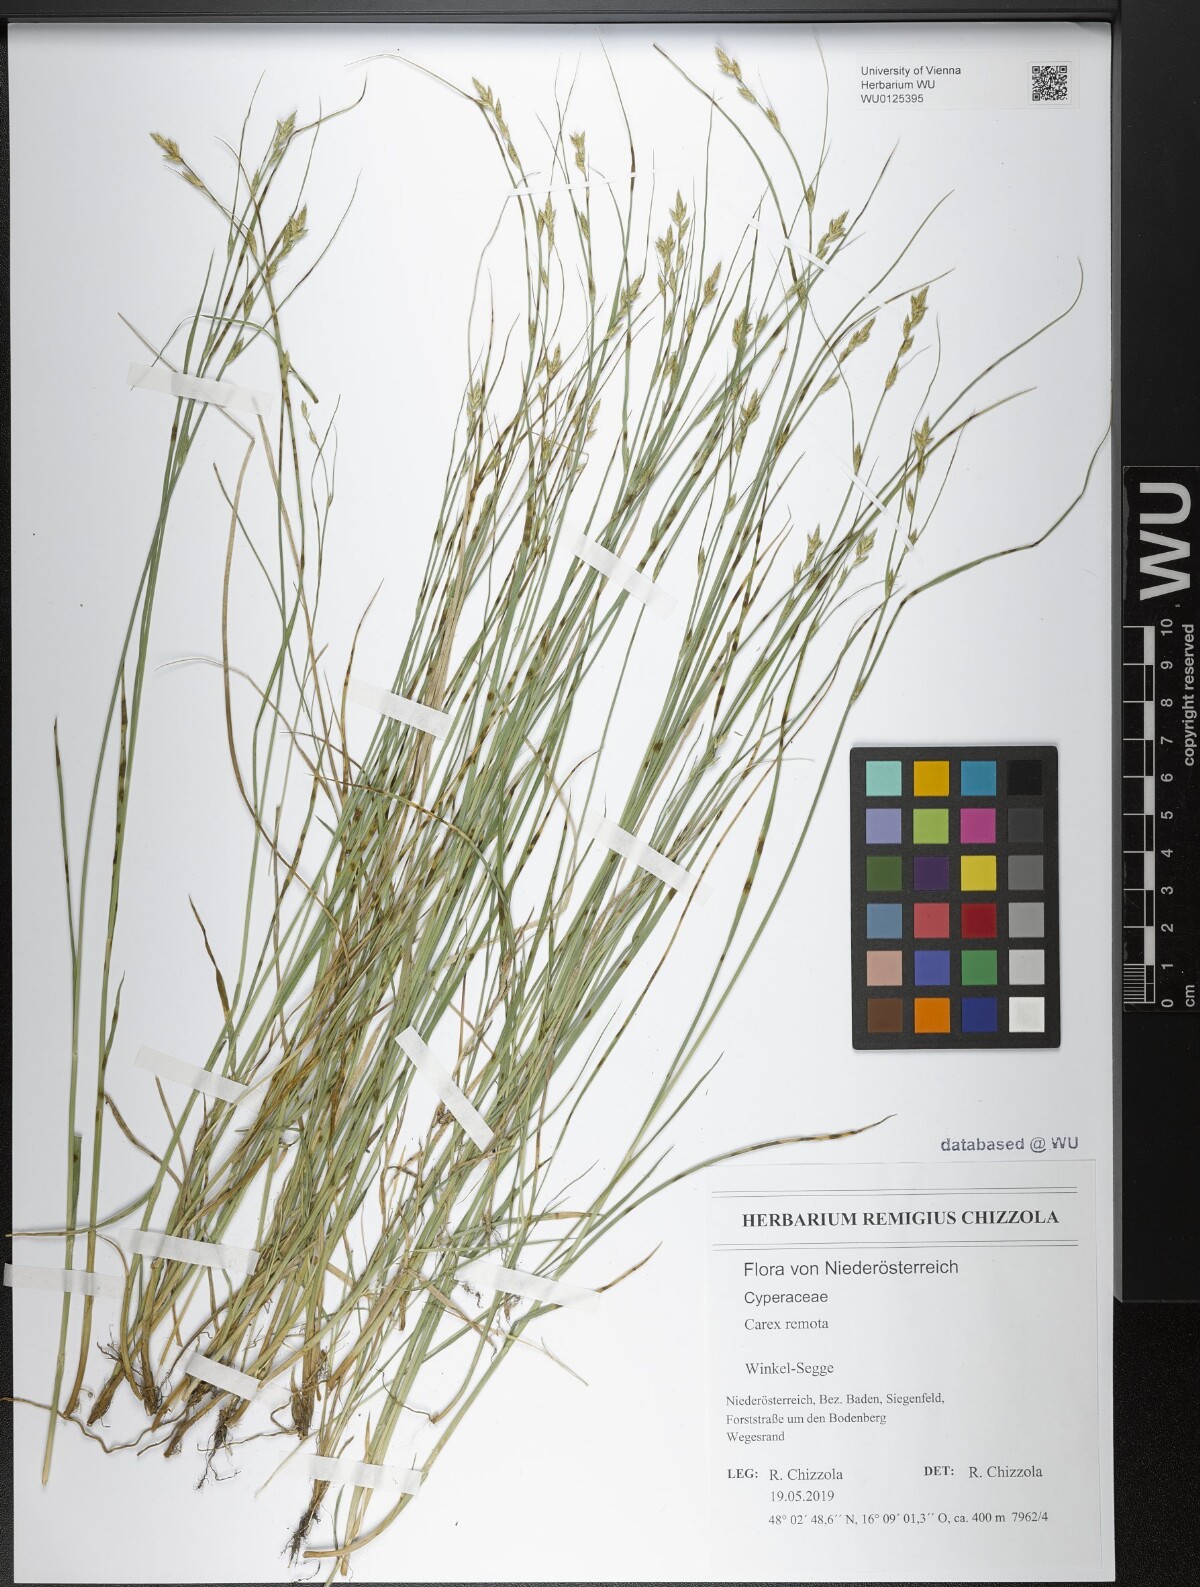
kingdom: Plantae
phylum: Tracheophyta
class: Liliopsida
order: Poales
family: Cyperaceae
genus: Carex
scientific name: Carex remota
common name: Remote sedge
